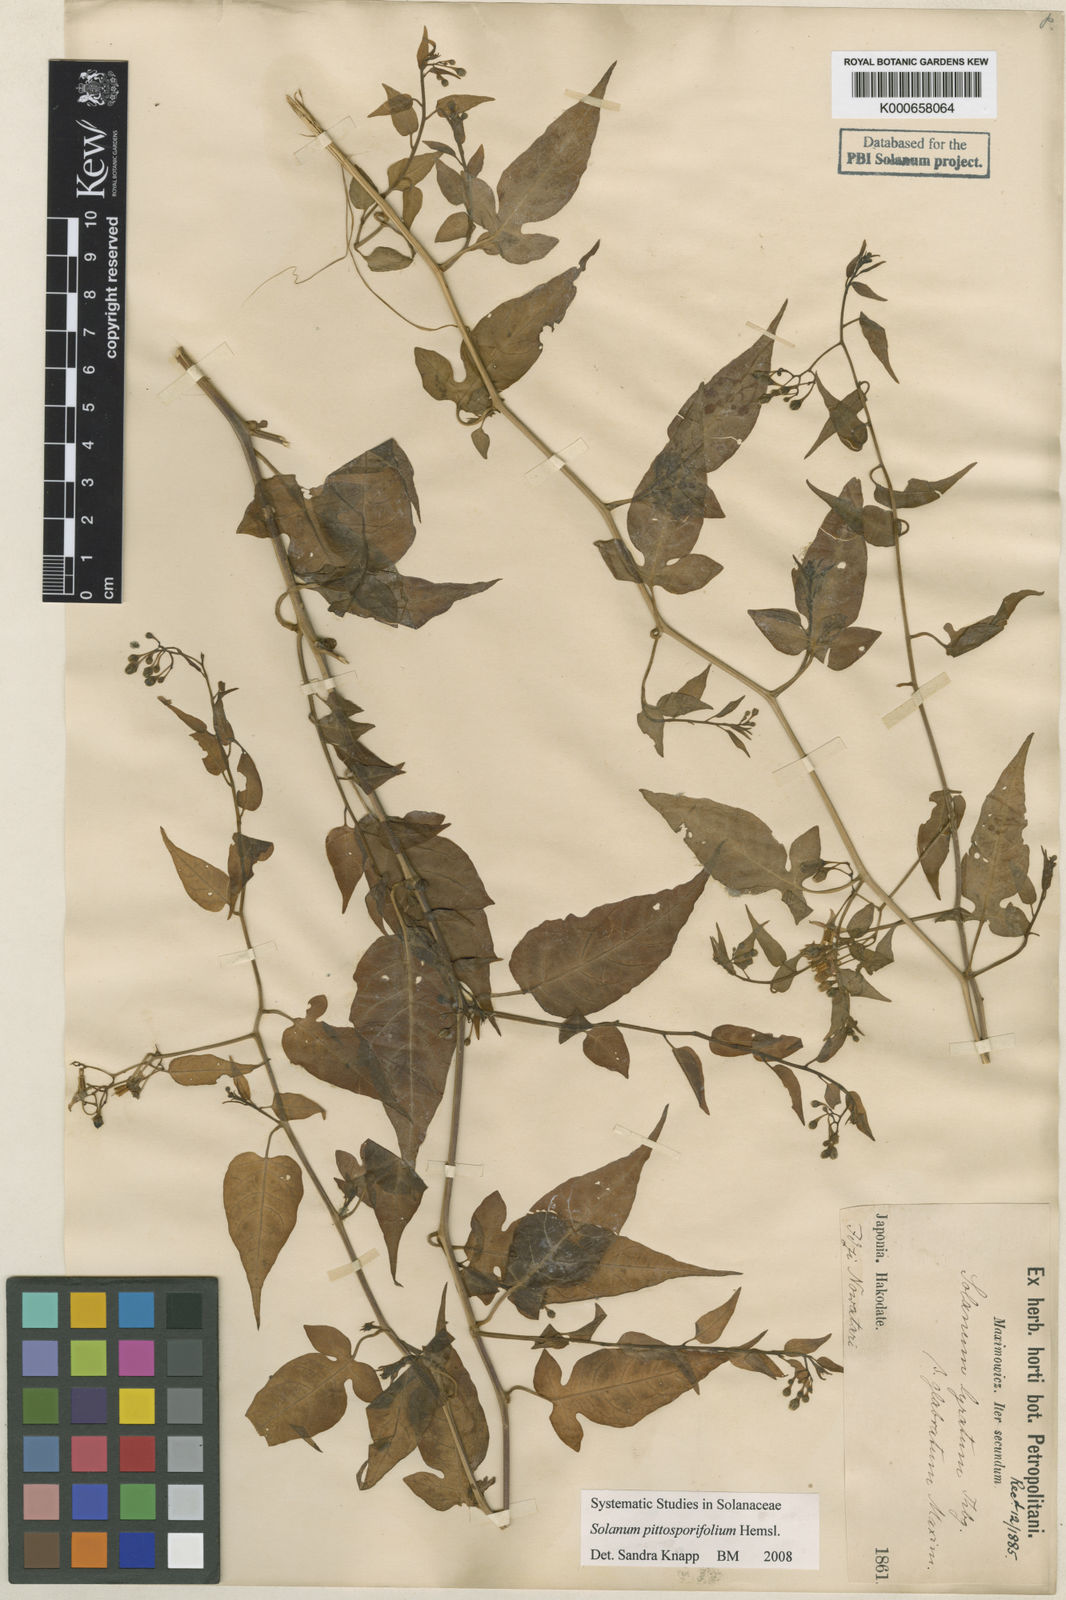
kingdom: Plantae
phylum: Tracheophyta
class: Magnoliopsida
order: Solanales
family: Solanaceae
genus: Solanum
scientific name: Solanum pittosporifolium
